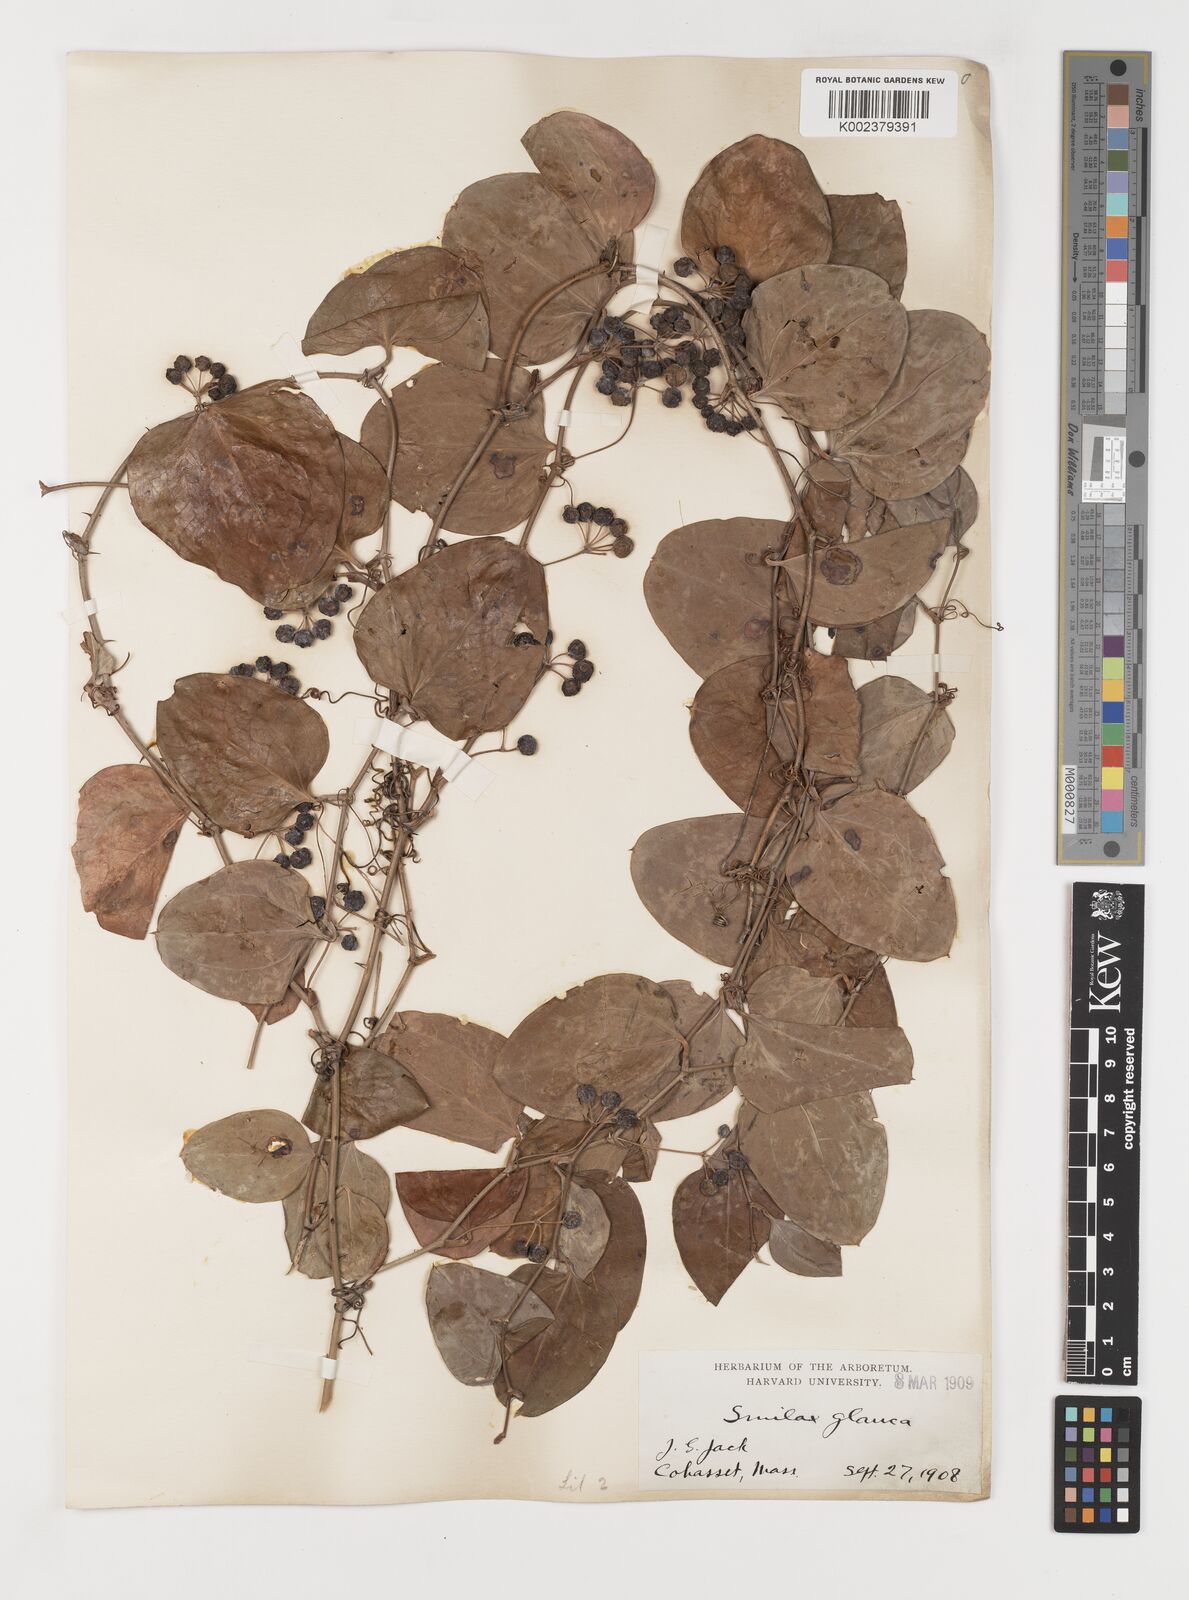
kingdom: Plantae
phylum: Tracheophyta
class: Liliopsida
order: Liliales
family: Smilacaceae
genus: Smilax
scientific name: Smilax glauca
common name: Cat greenbrier
